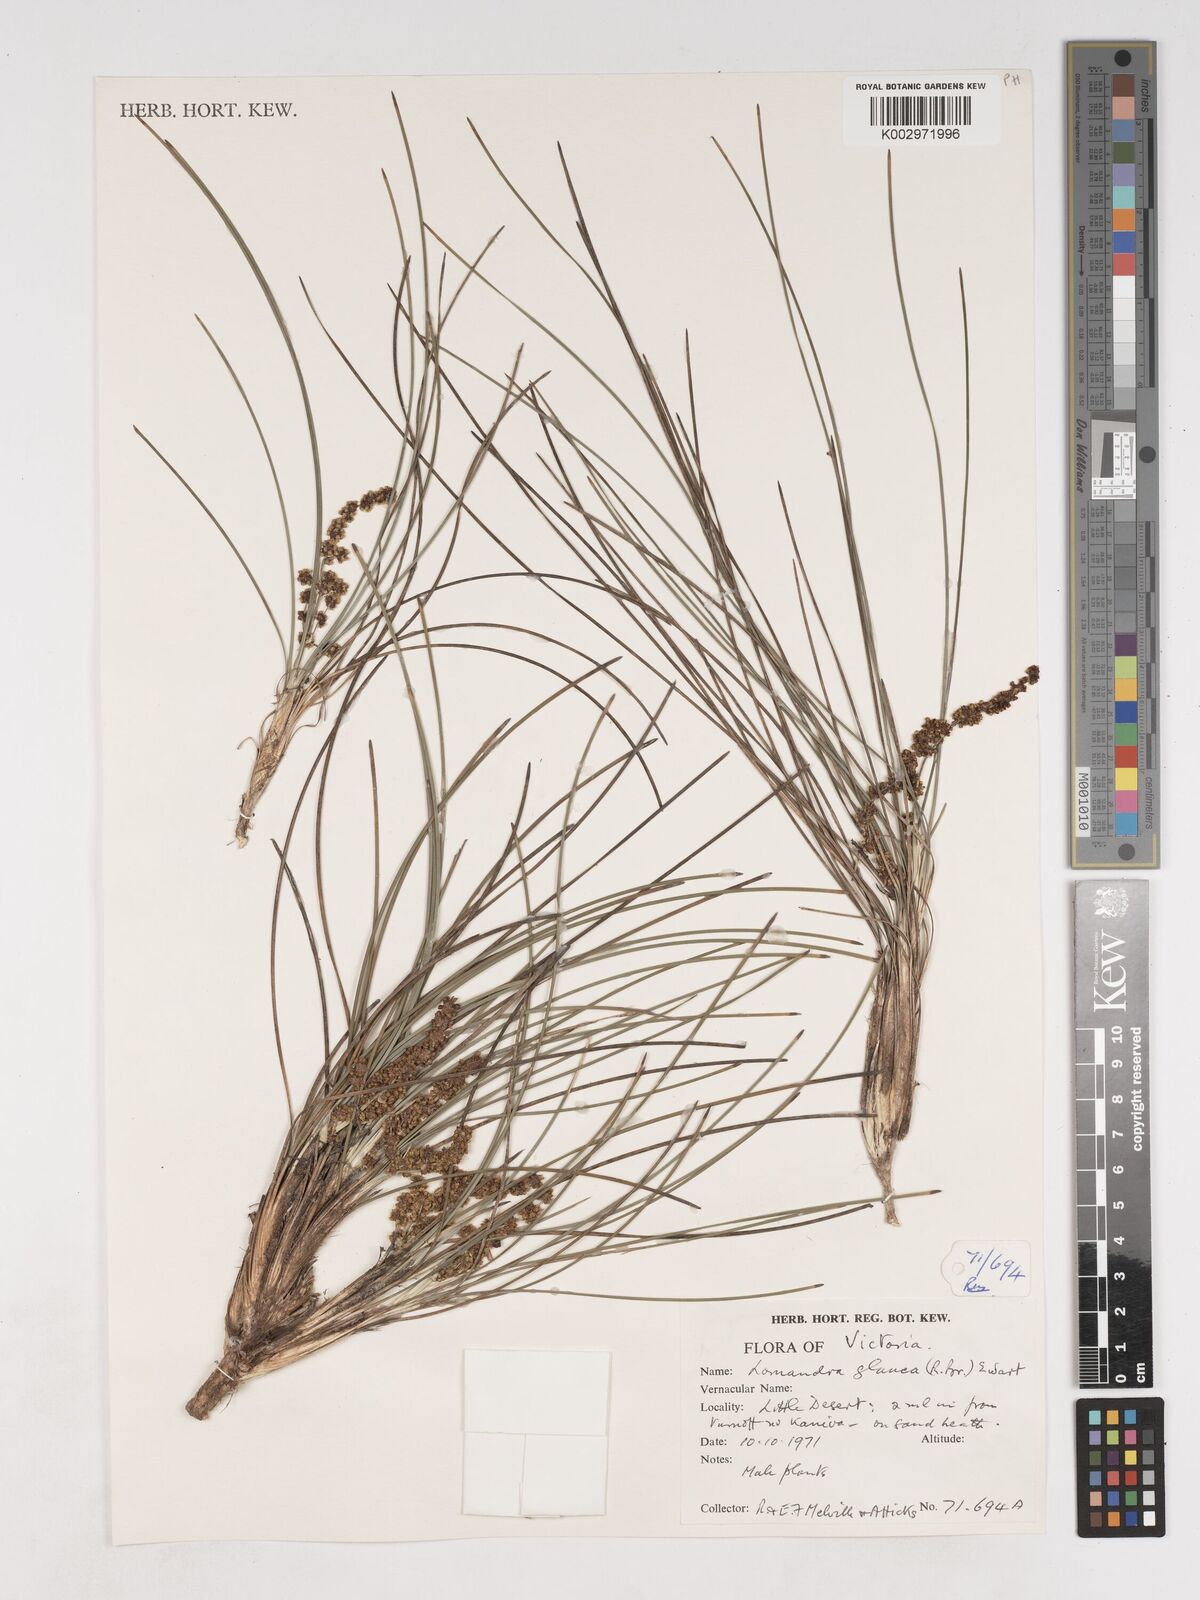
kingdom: Plantae
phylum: Tracheophyta
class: Liliopsida
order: Asparagales
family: Asparagaceae
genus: Lomandra
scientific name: Lomandra glauca
